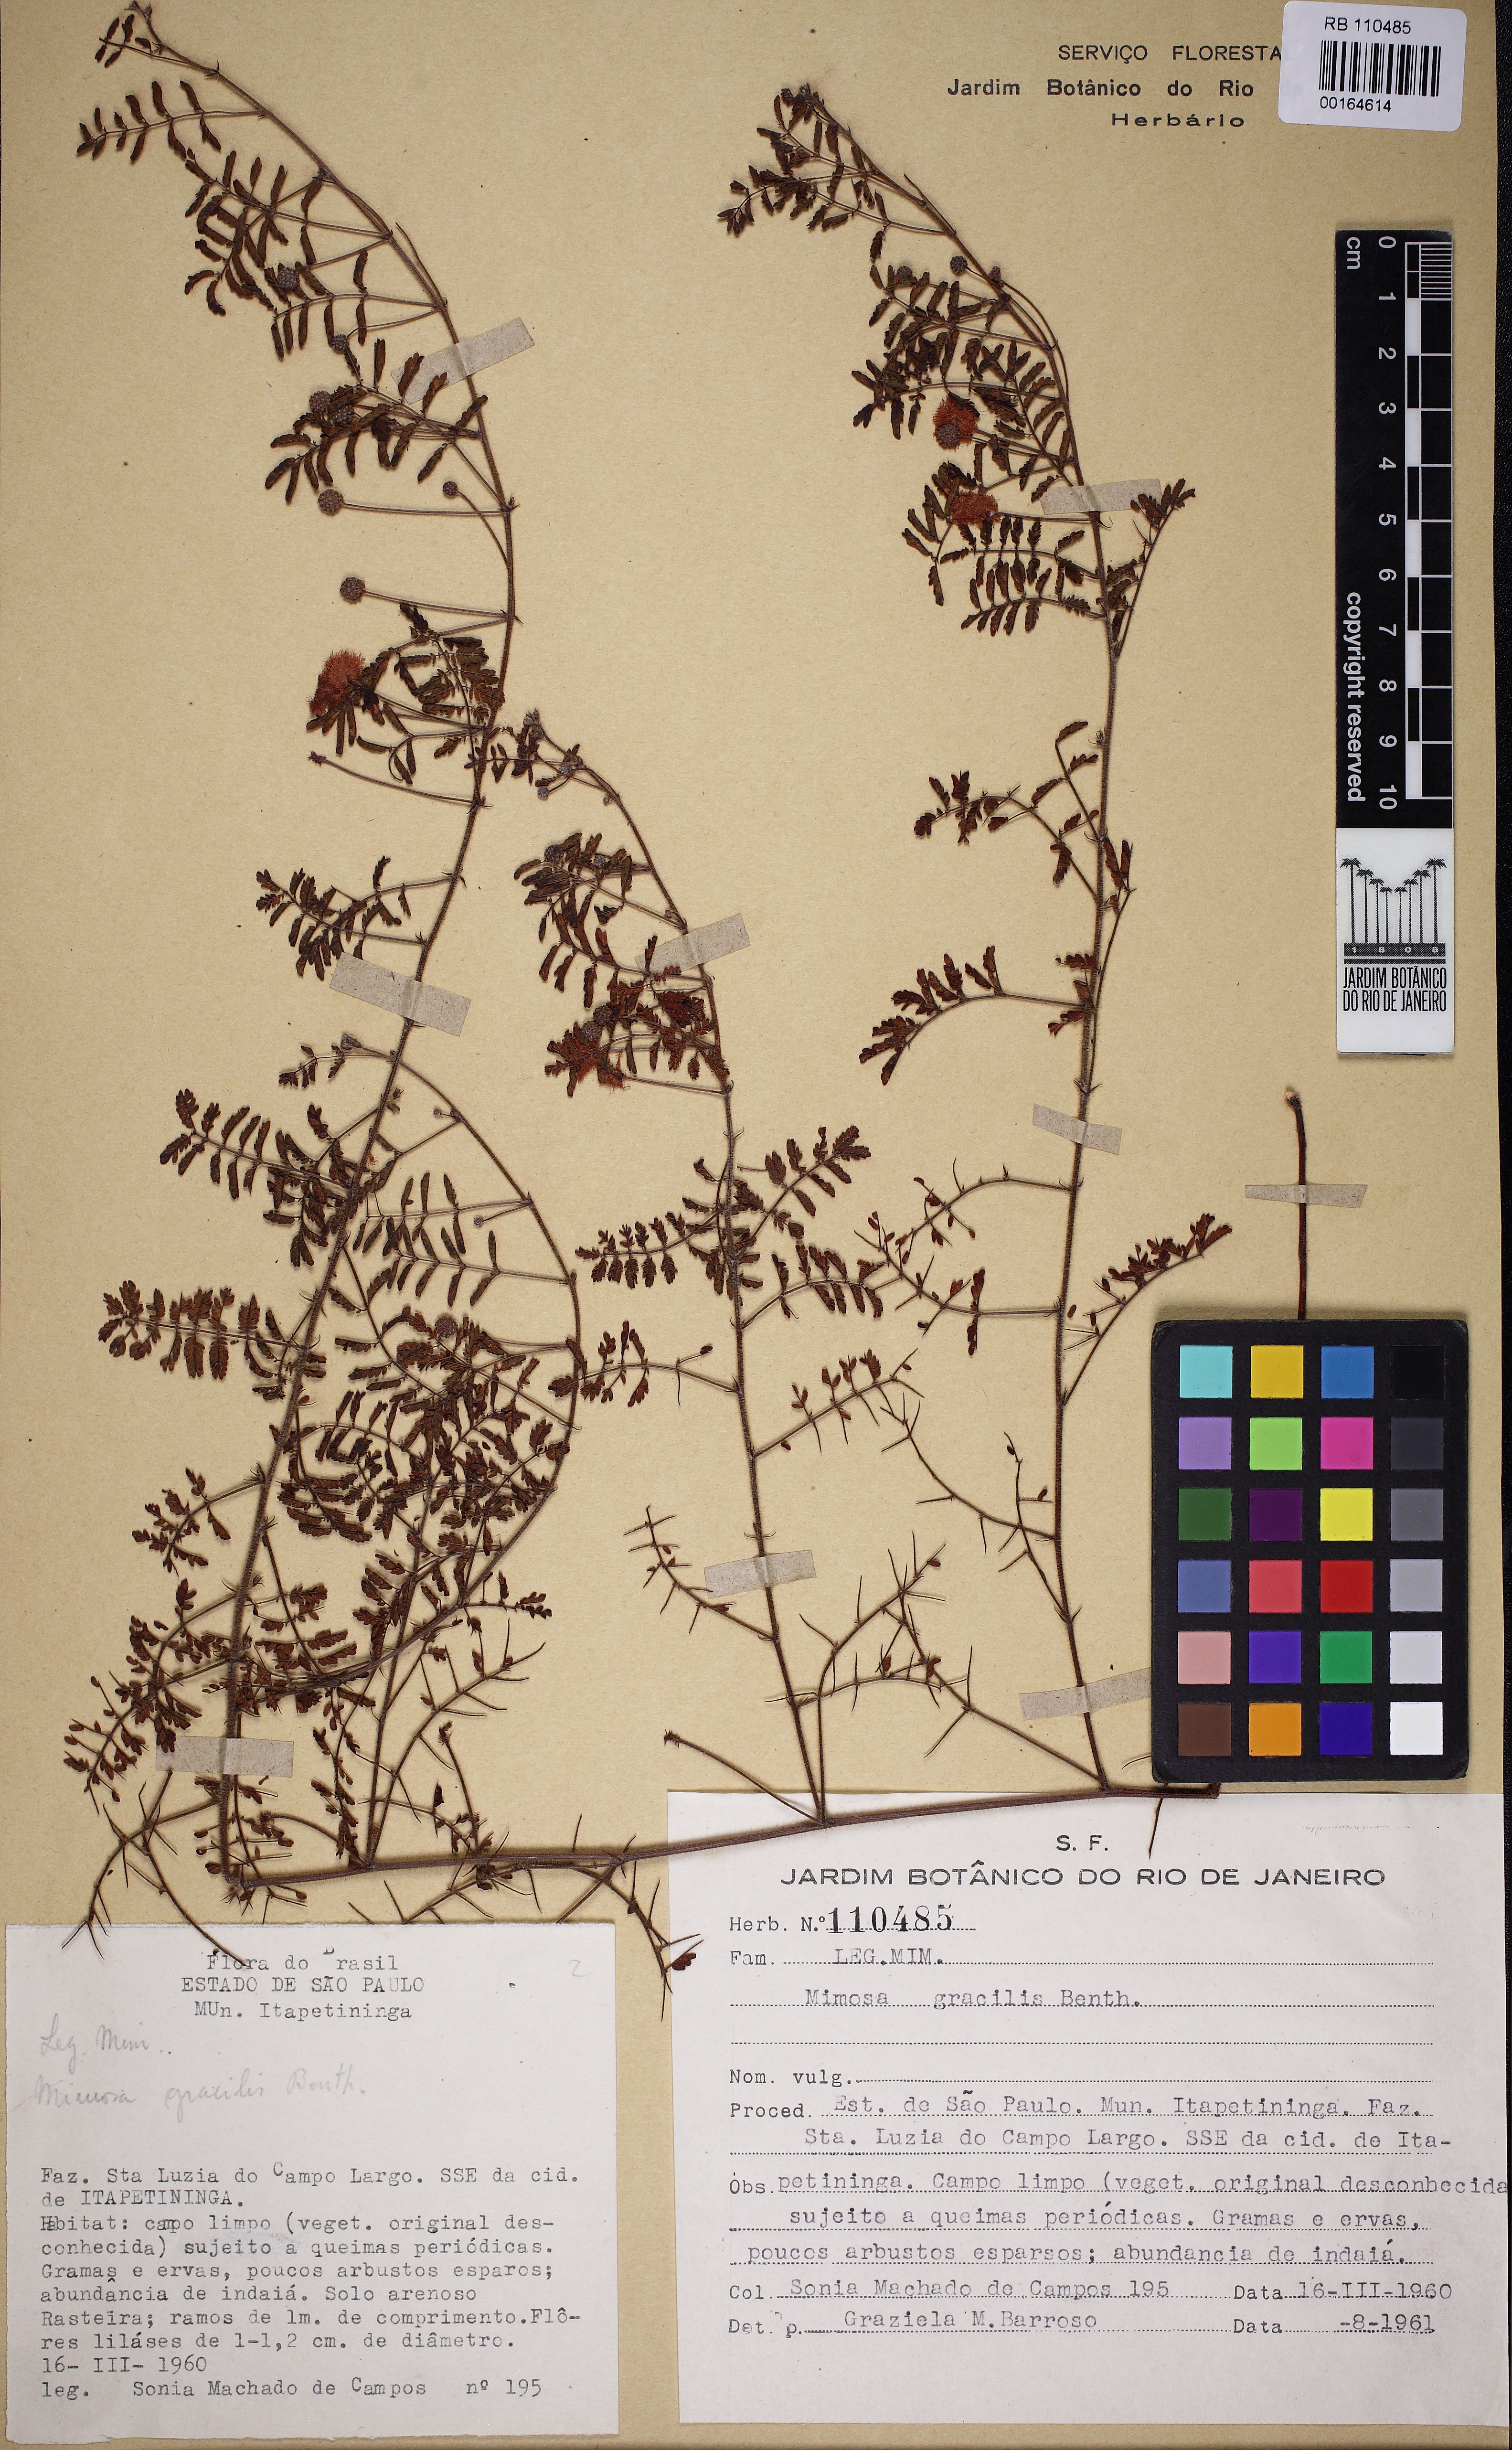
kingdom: Plantae
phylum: Tracheophyta
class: Magnoliopsida
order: Fabales
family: Fabaceae
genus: Mimosa
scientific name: Mimosa gracilis
